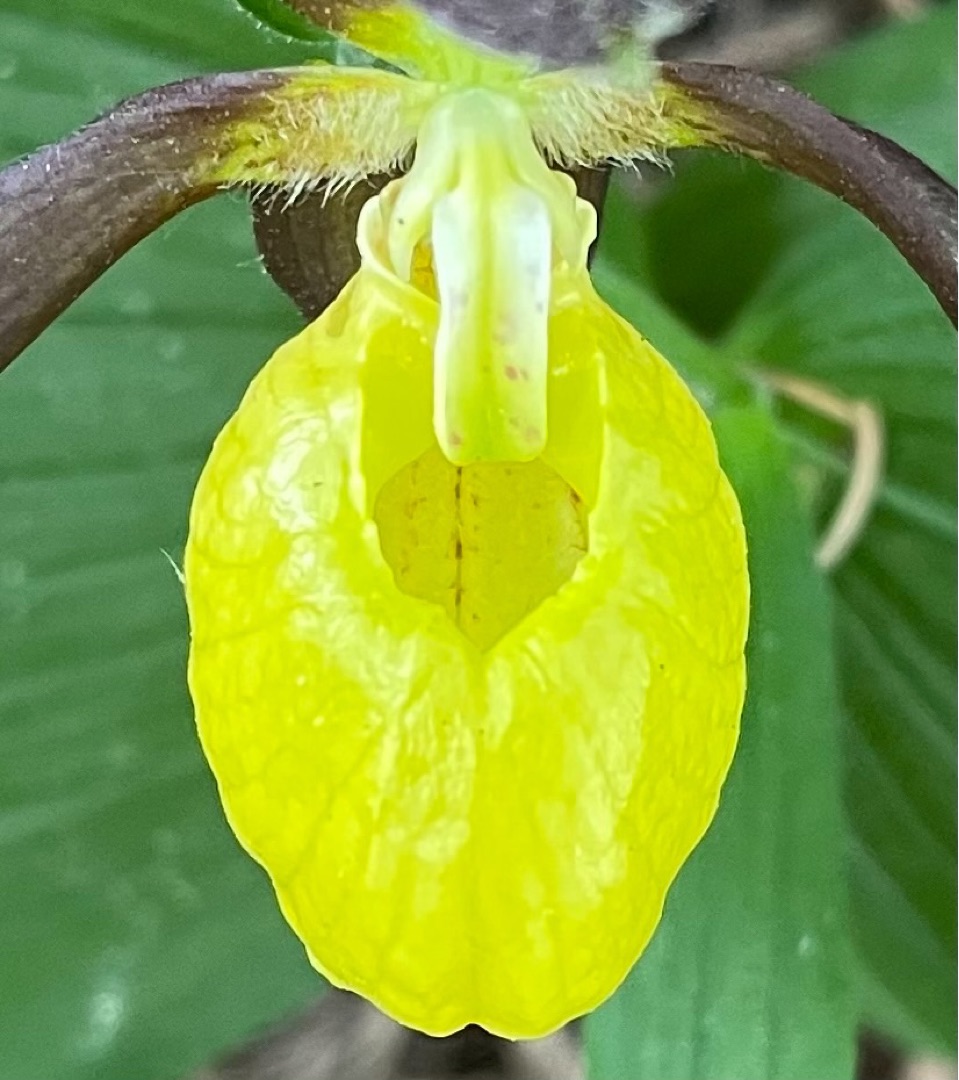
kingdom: Plantae
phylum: Tracheophyta
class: Liliopsida
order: Asparagales
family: Orchidaceae
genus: Cypripedium
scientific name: Cypripedium calceolus
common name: Fruesko
